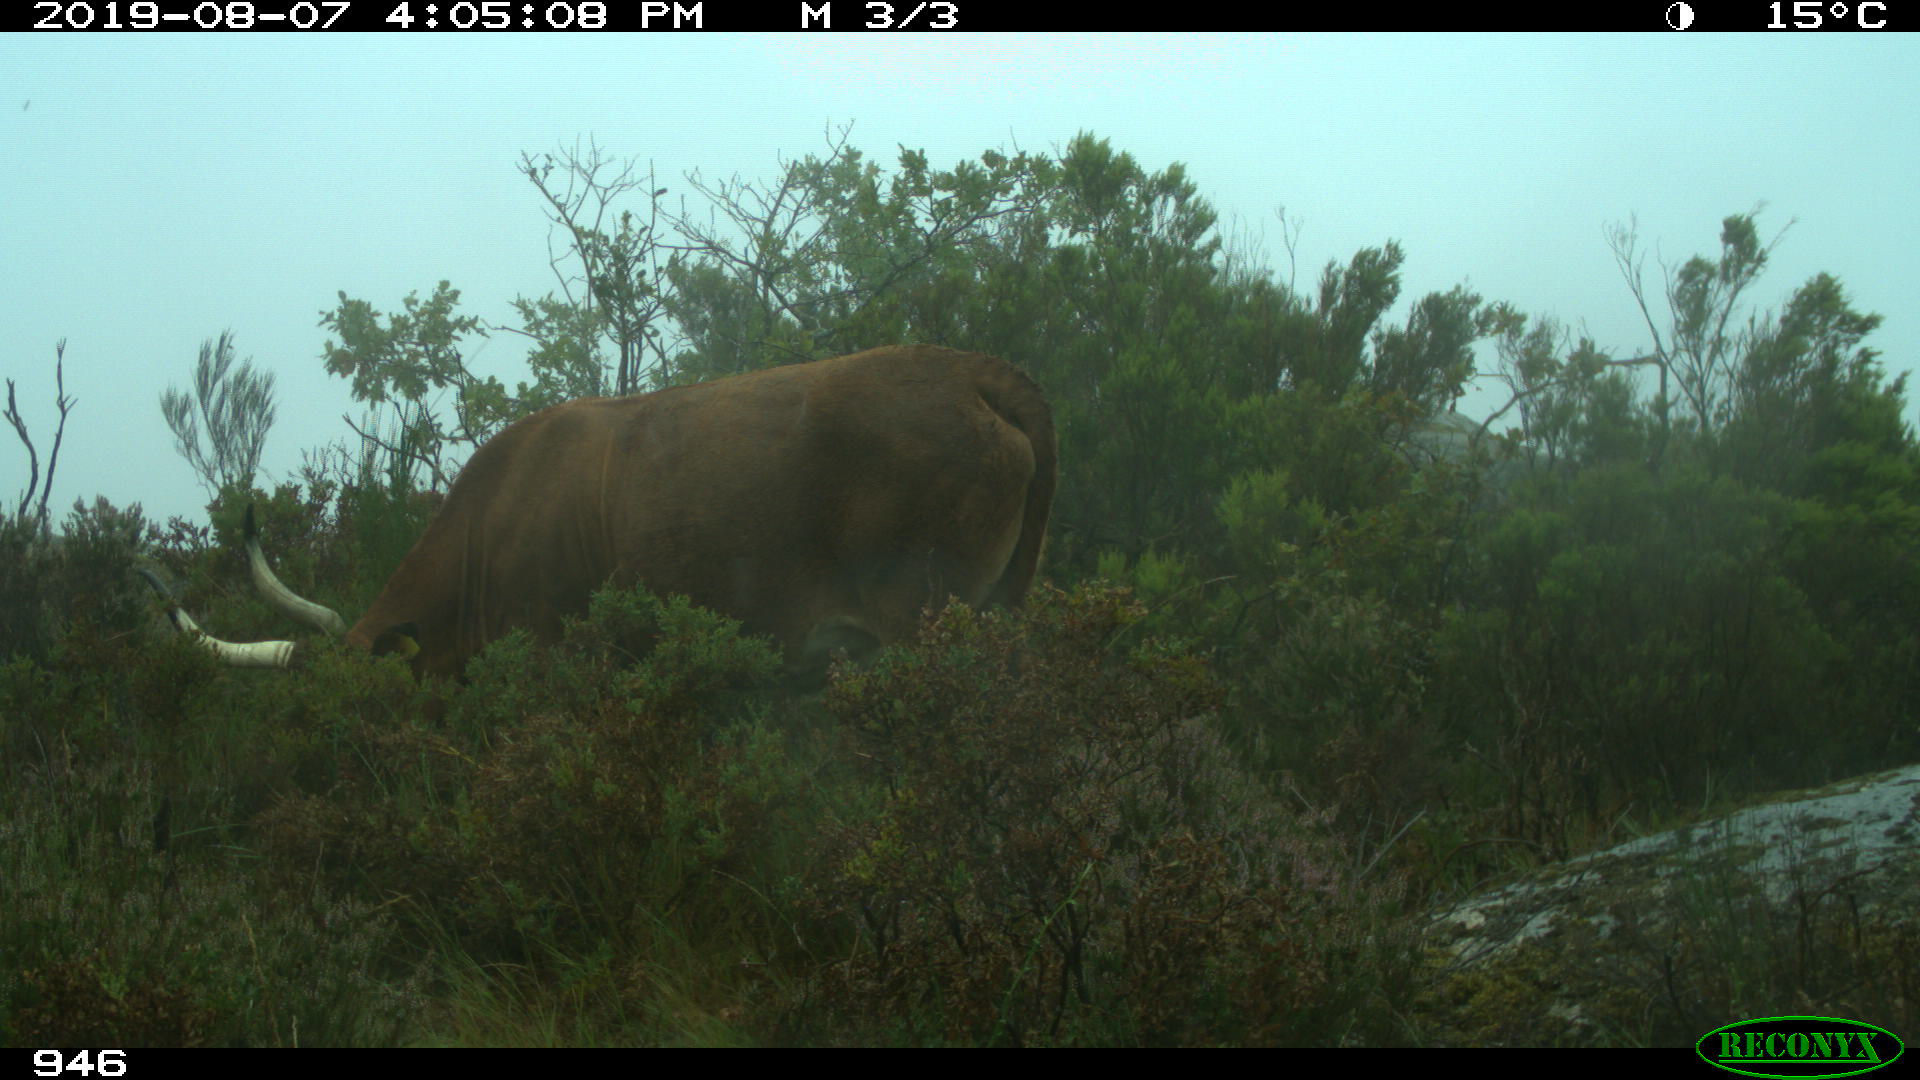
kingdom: Animalia
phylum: Chordata
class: Mammalia
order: Artiodactyla
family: Bovidae
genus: Bos
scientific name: Bos taurus
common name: Domesticated cattle
